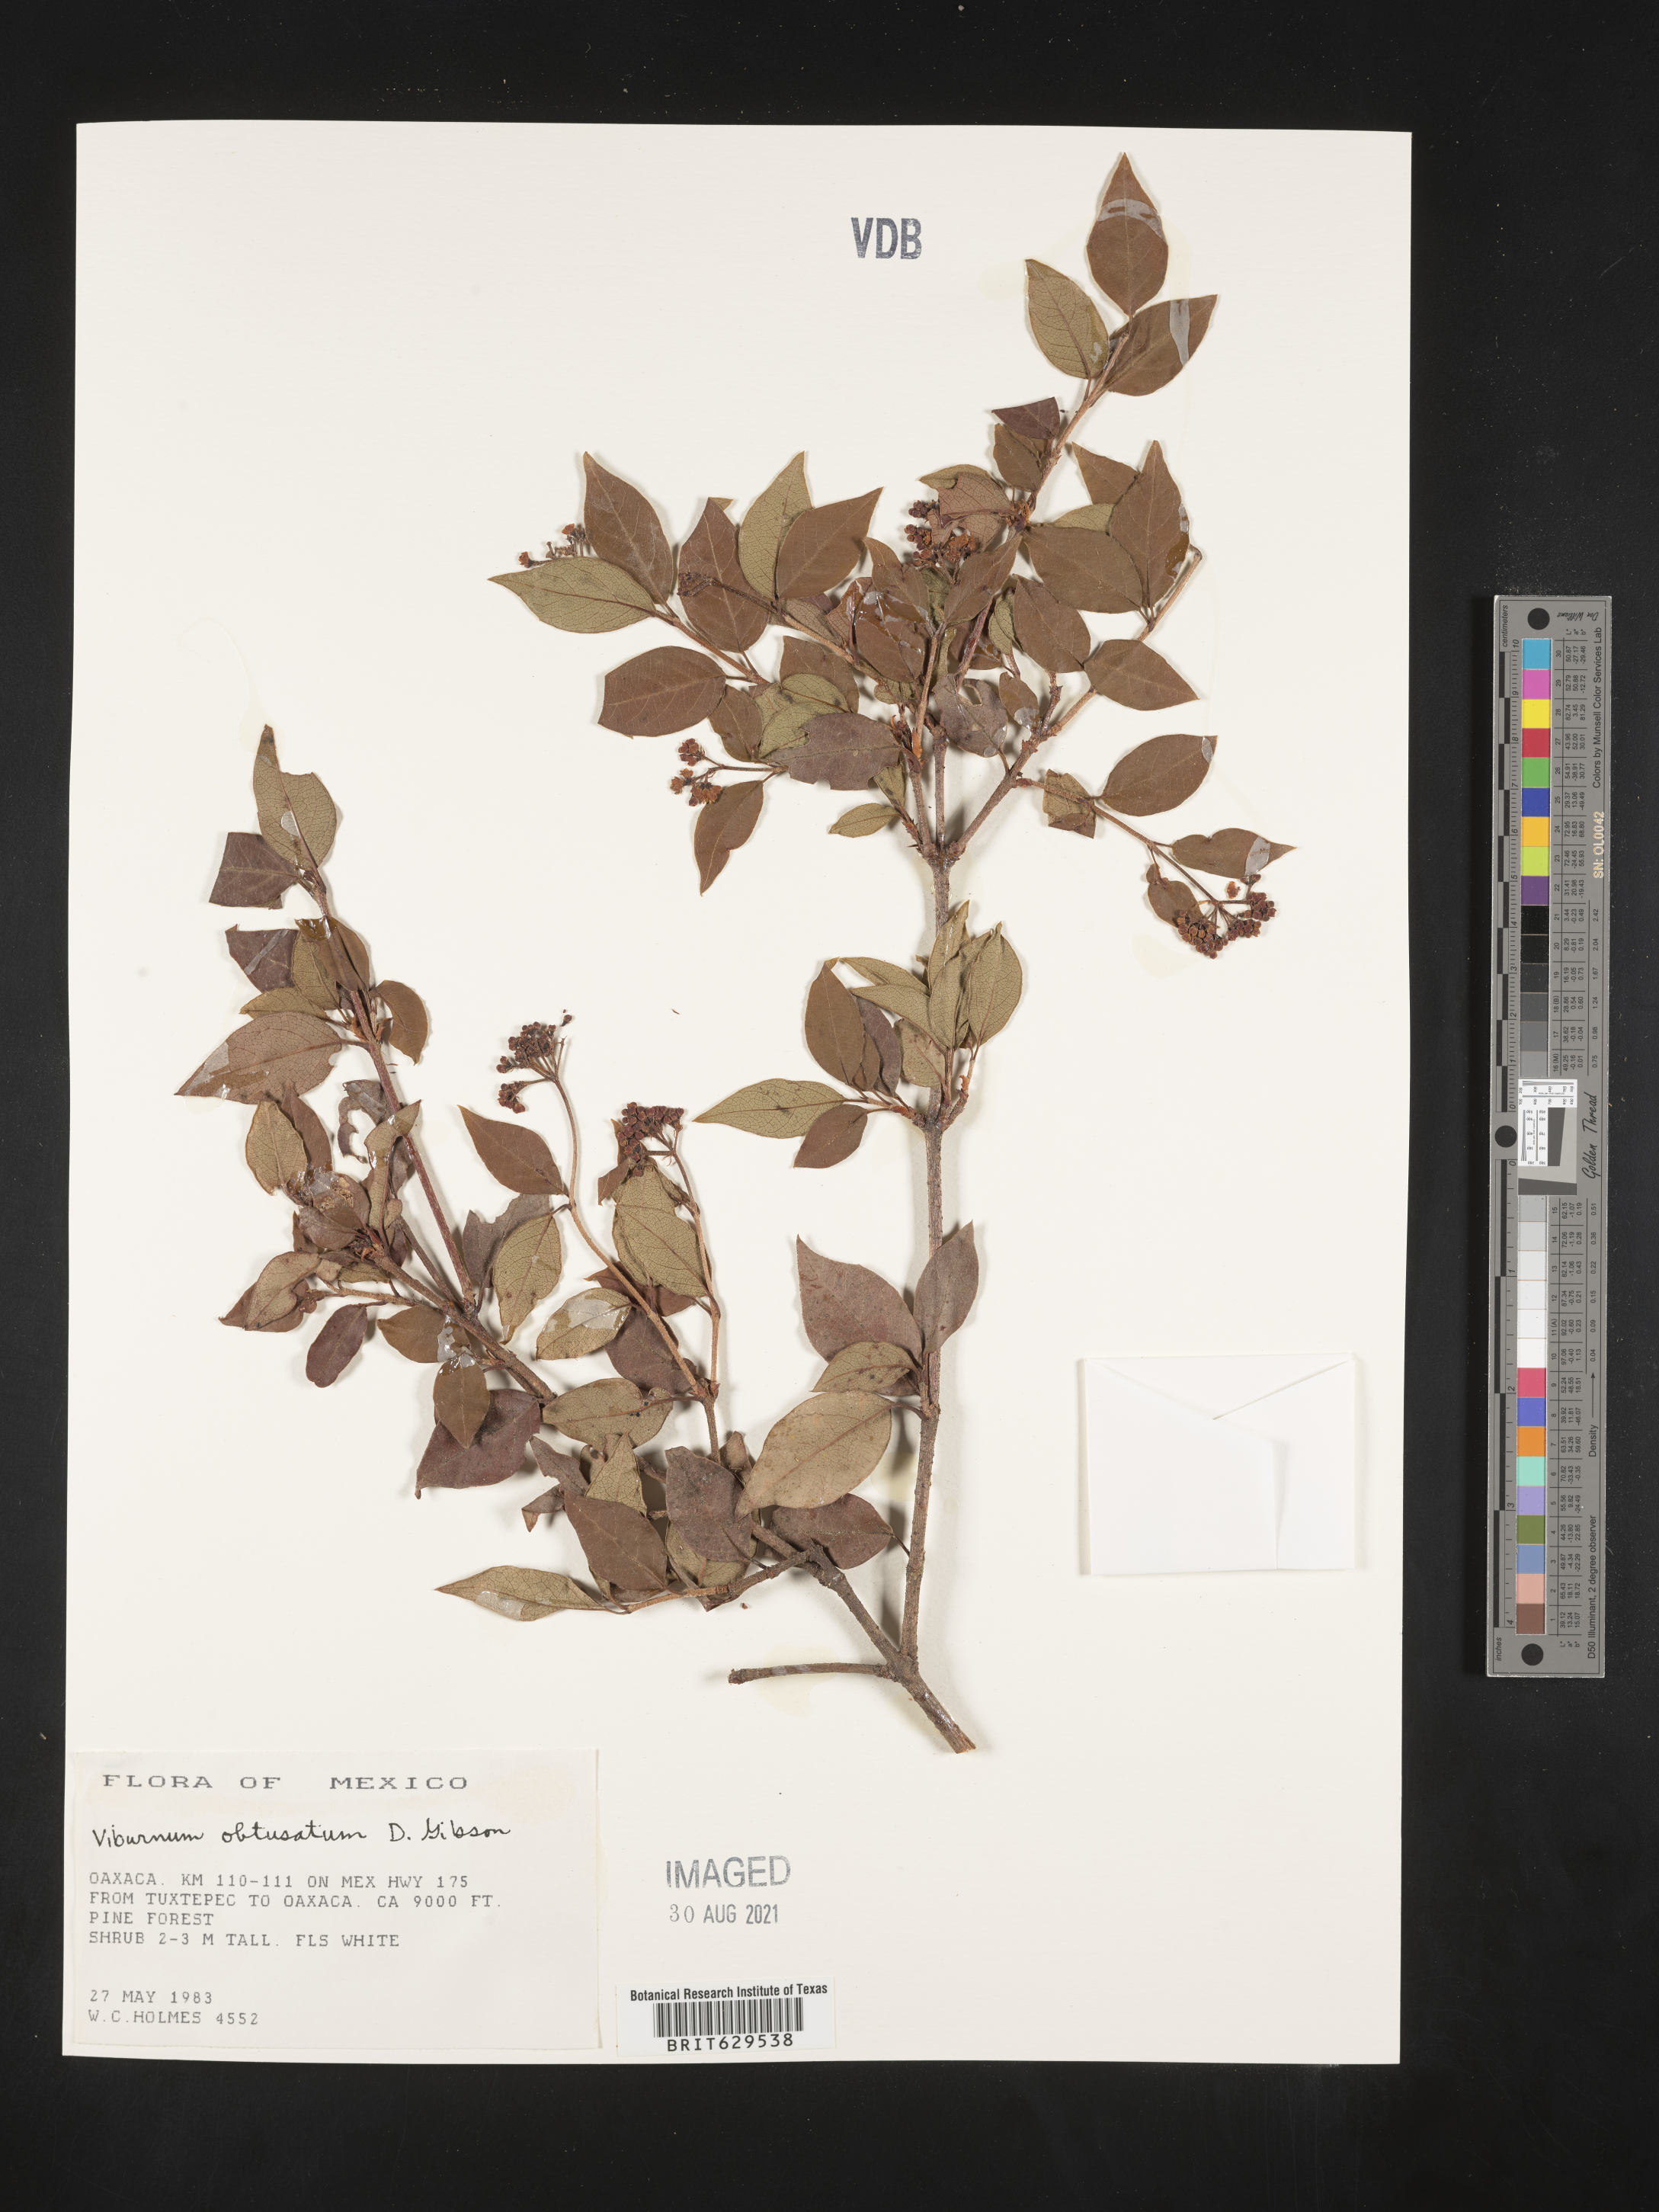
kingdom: Plantae
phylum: Tracheophyta
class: Magnoliopsida
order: Dipsacales
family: Viburnaceae
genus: Viburnum
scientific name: Viburnum
